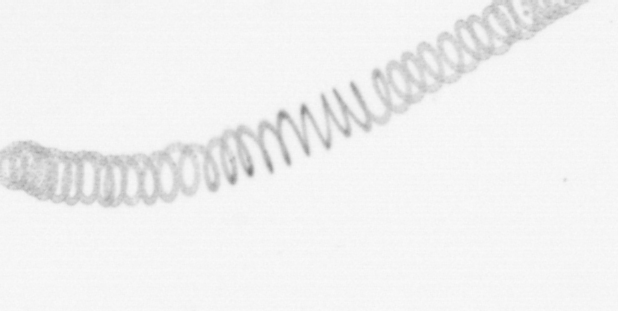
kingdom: Chromista
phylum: Ochrophyta
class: Bacillariophyceae
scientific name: Bacillariophyceae
